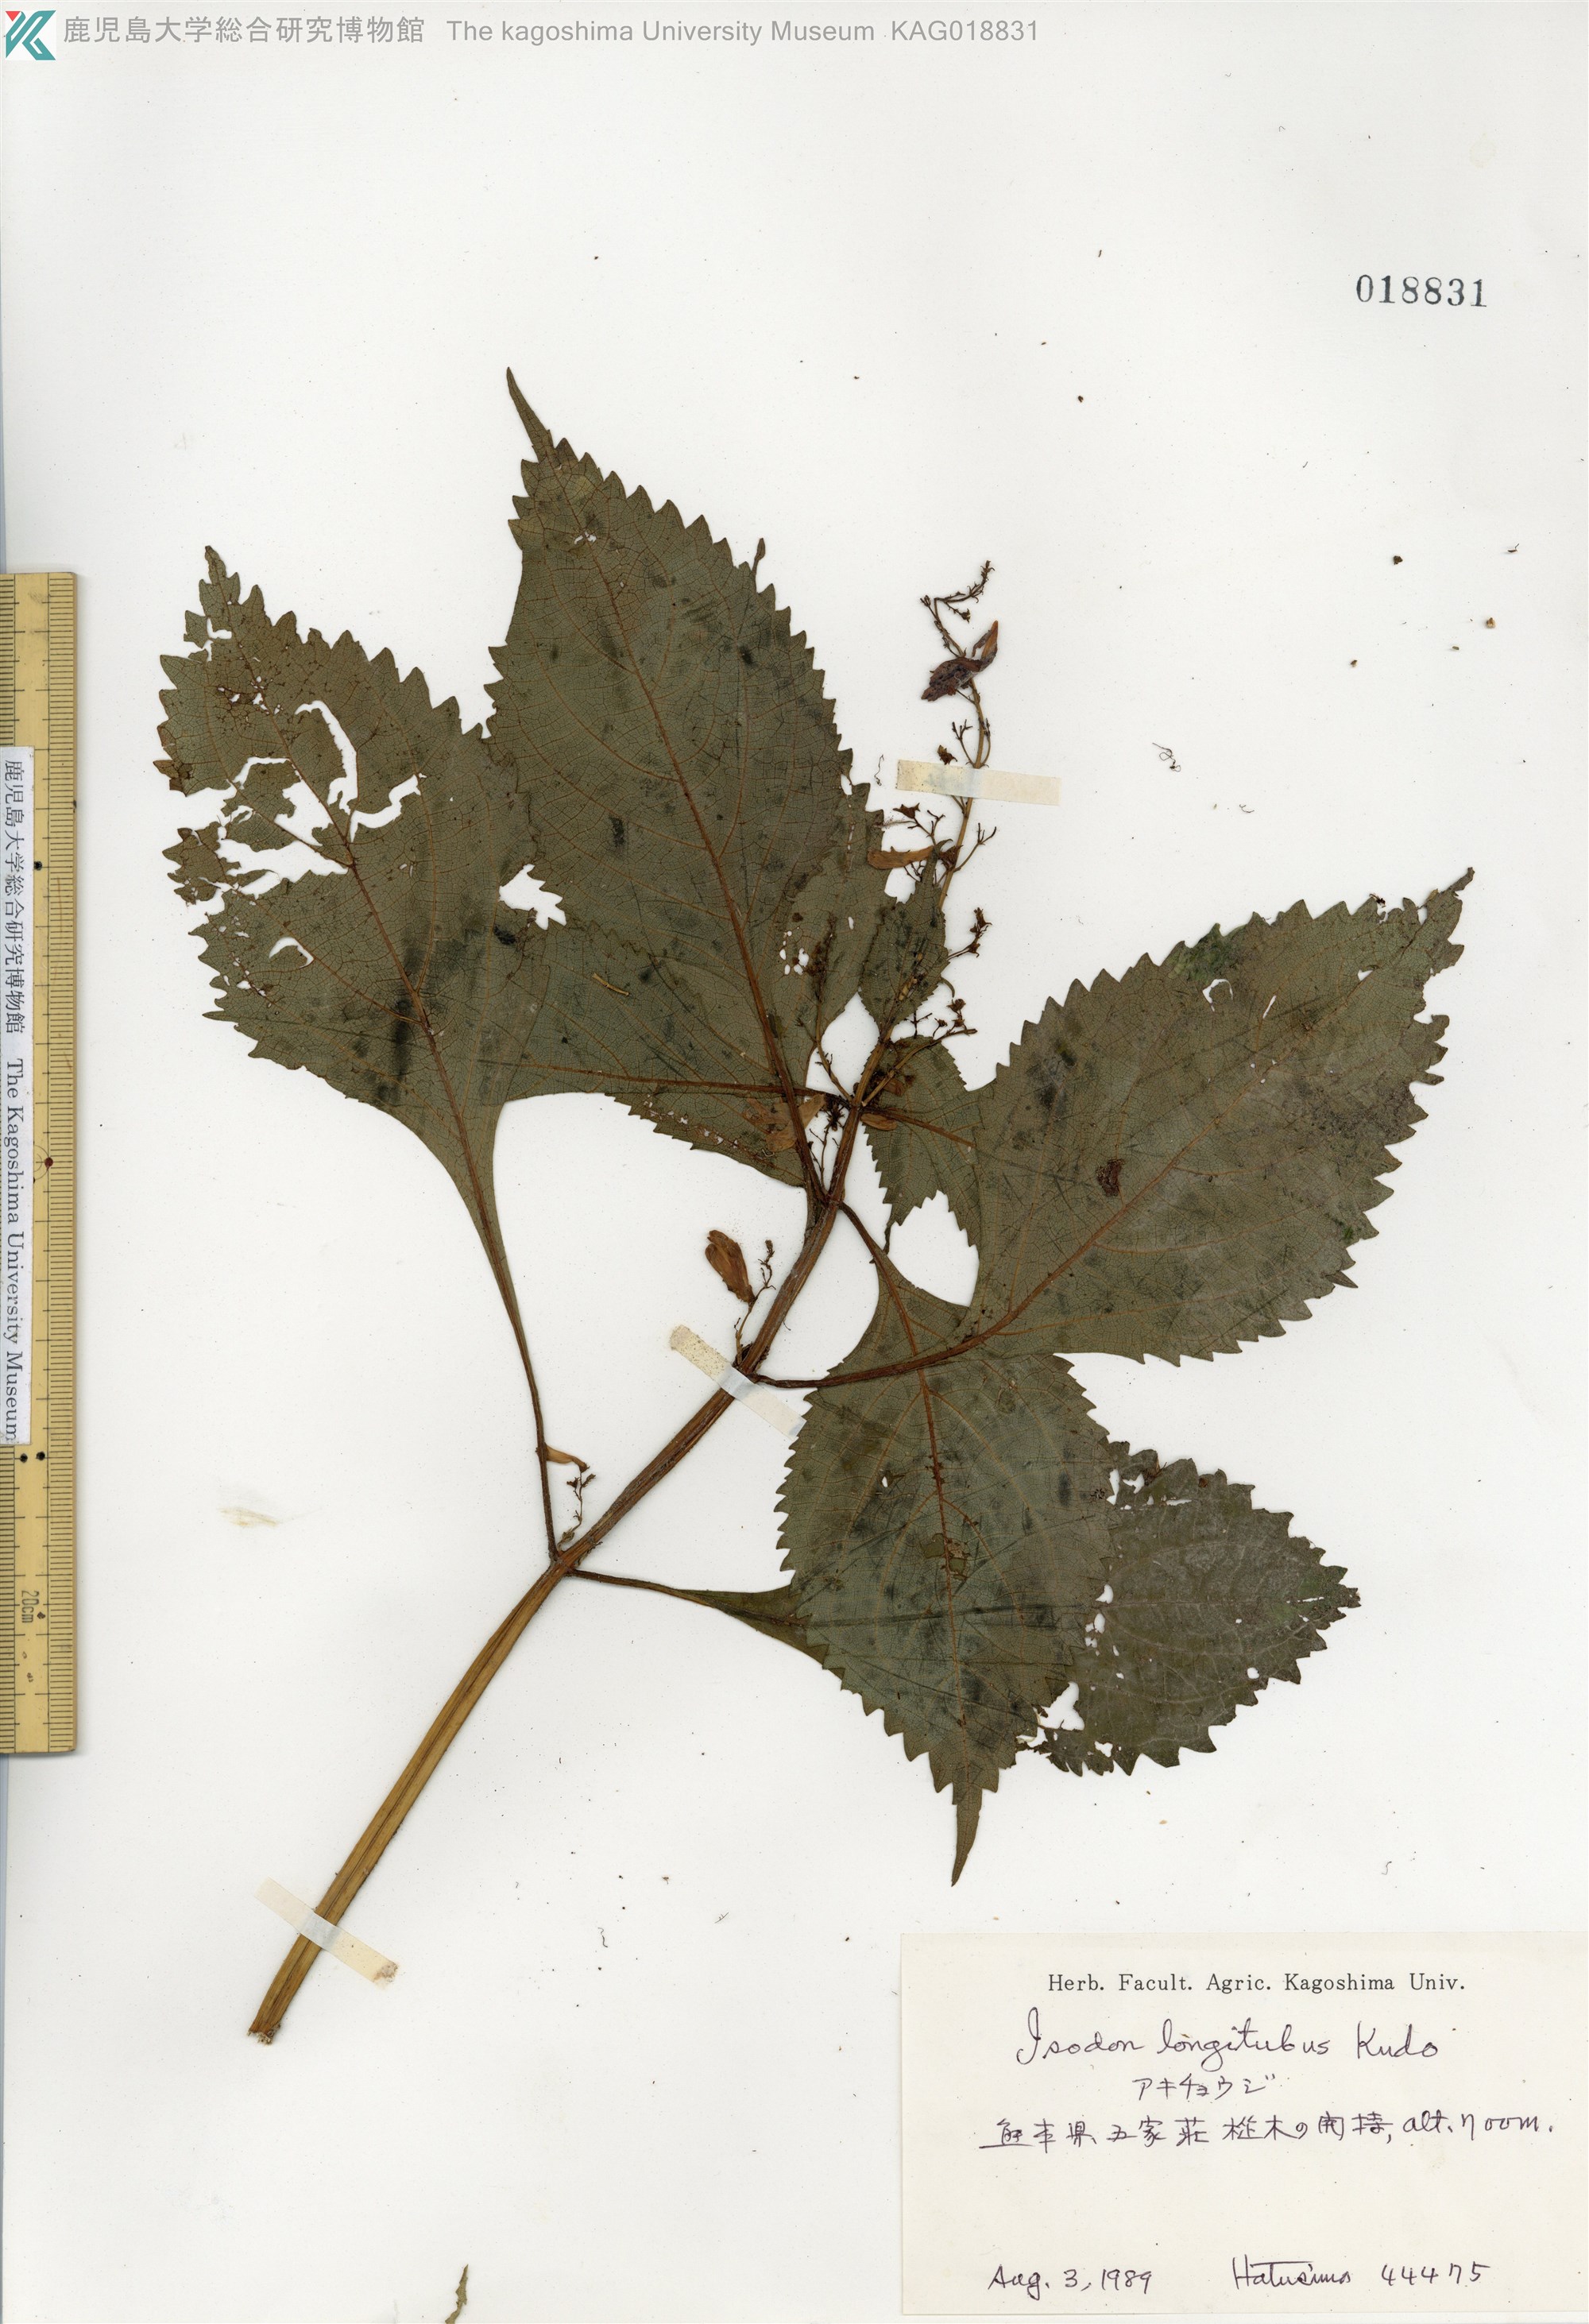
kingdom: Plantae
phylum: Tracheophyta
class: Magnoliopsida
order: Lamiales
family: Lamiaceae
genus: Isodon
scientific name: Isodon longitubus
